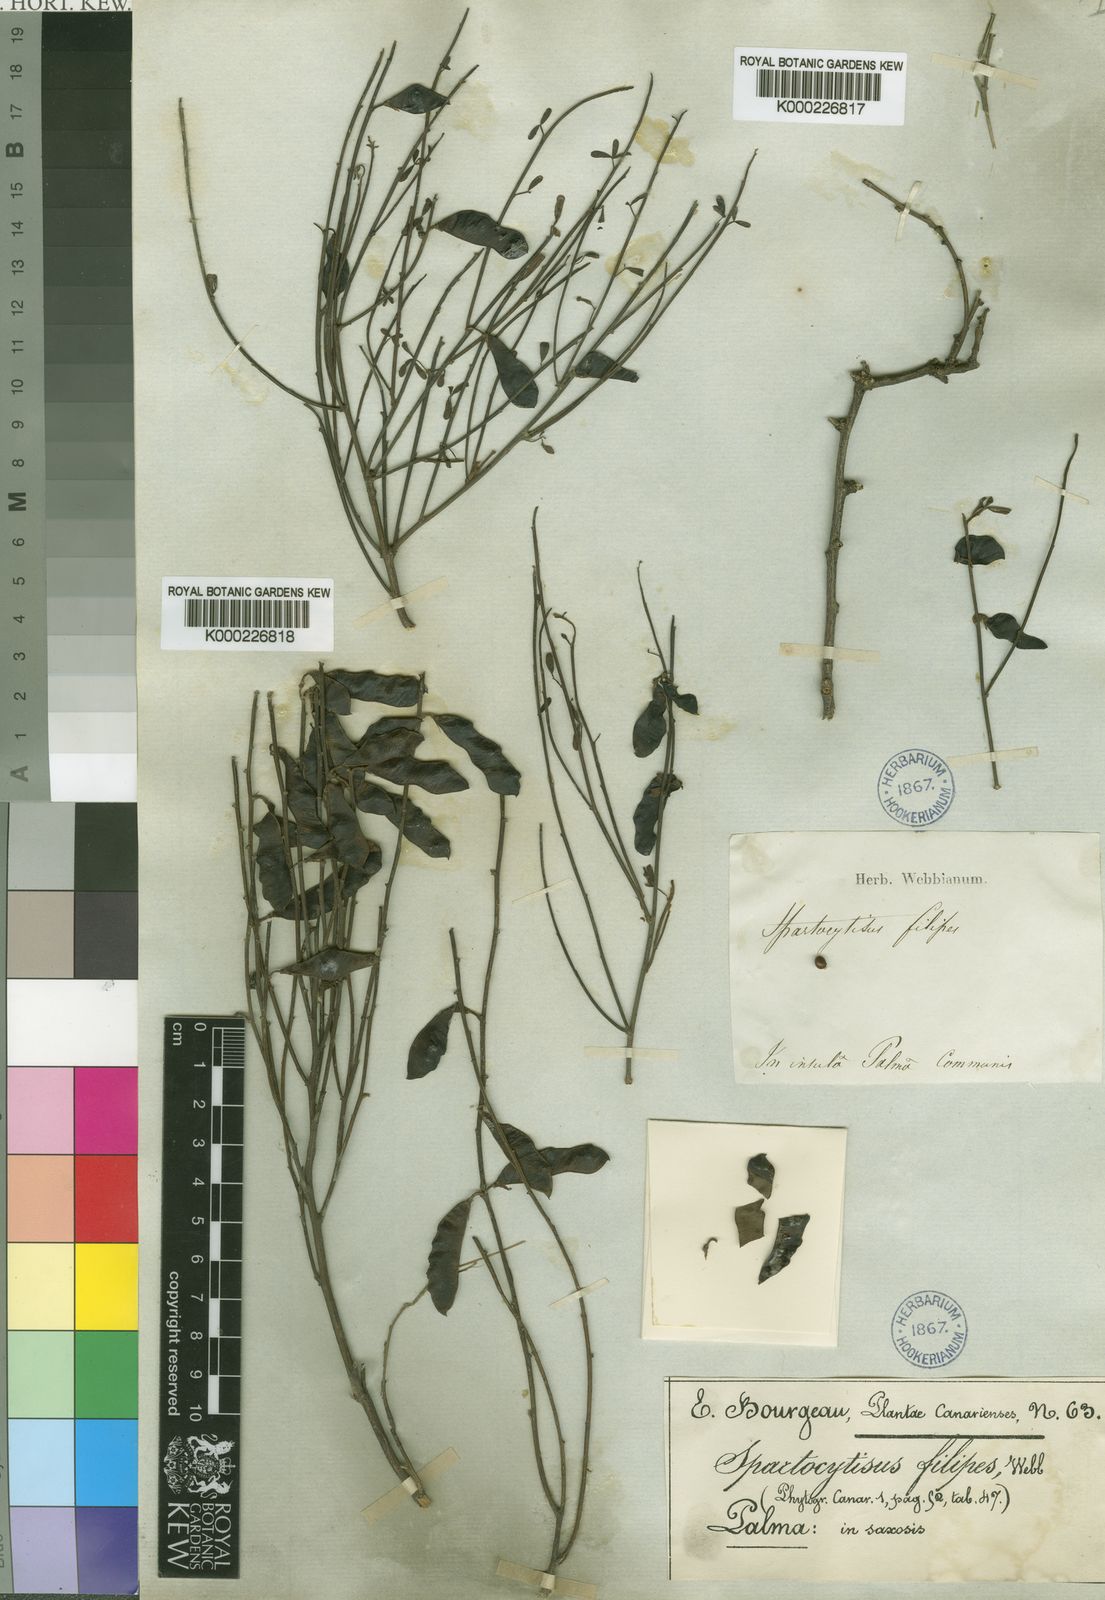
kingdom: Plantae
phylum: Tracheophyta
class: Magnoliopsida
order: Fabales
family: Fabaceae
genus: Cytisus
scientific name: Cytisus filipes
